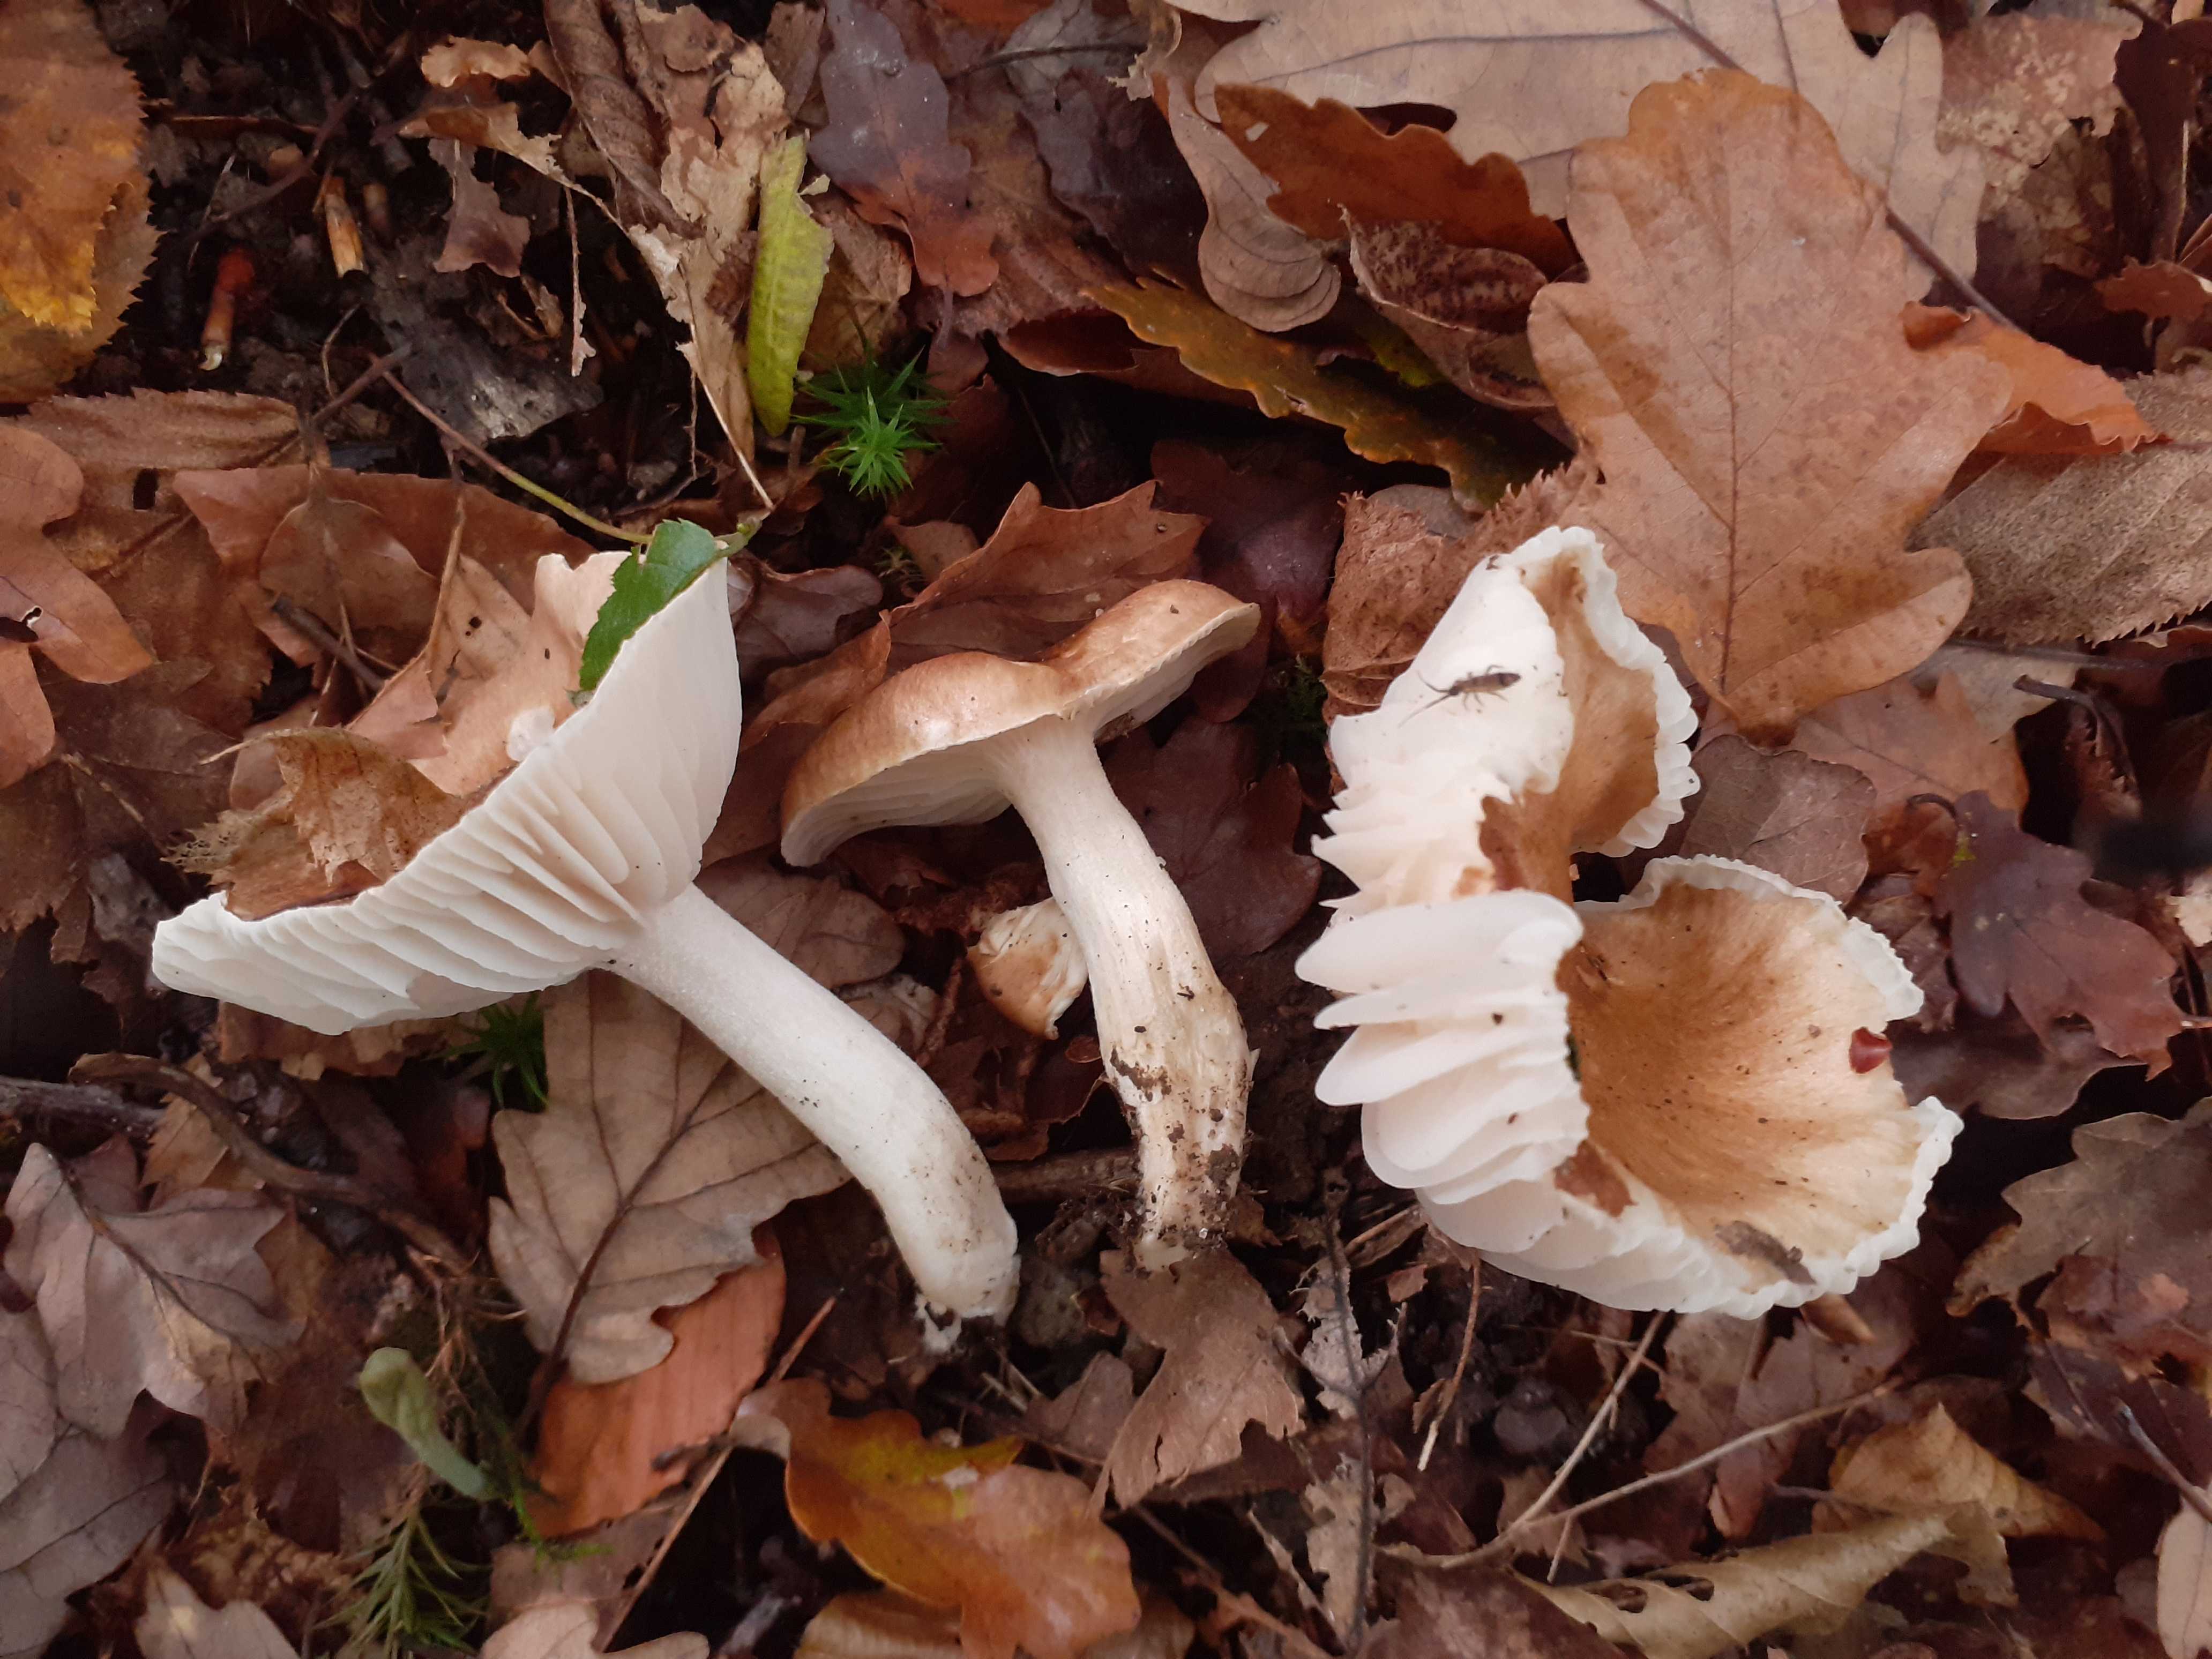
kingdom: Fungi
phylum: Basidiomycota
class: Agaricomycetes
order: Agaricales
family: Hygrophoraceae
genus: Hygrophorus
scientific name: Hygrophorus
